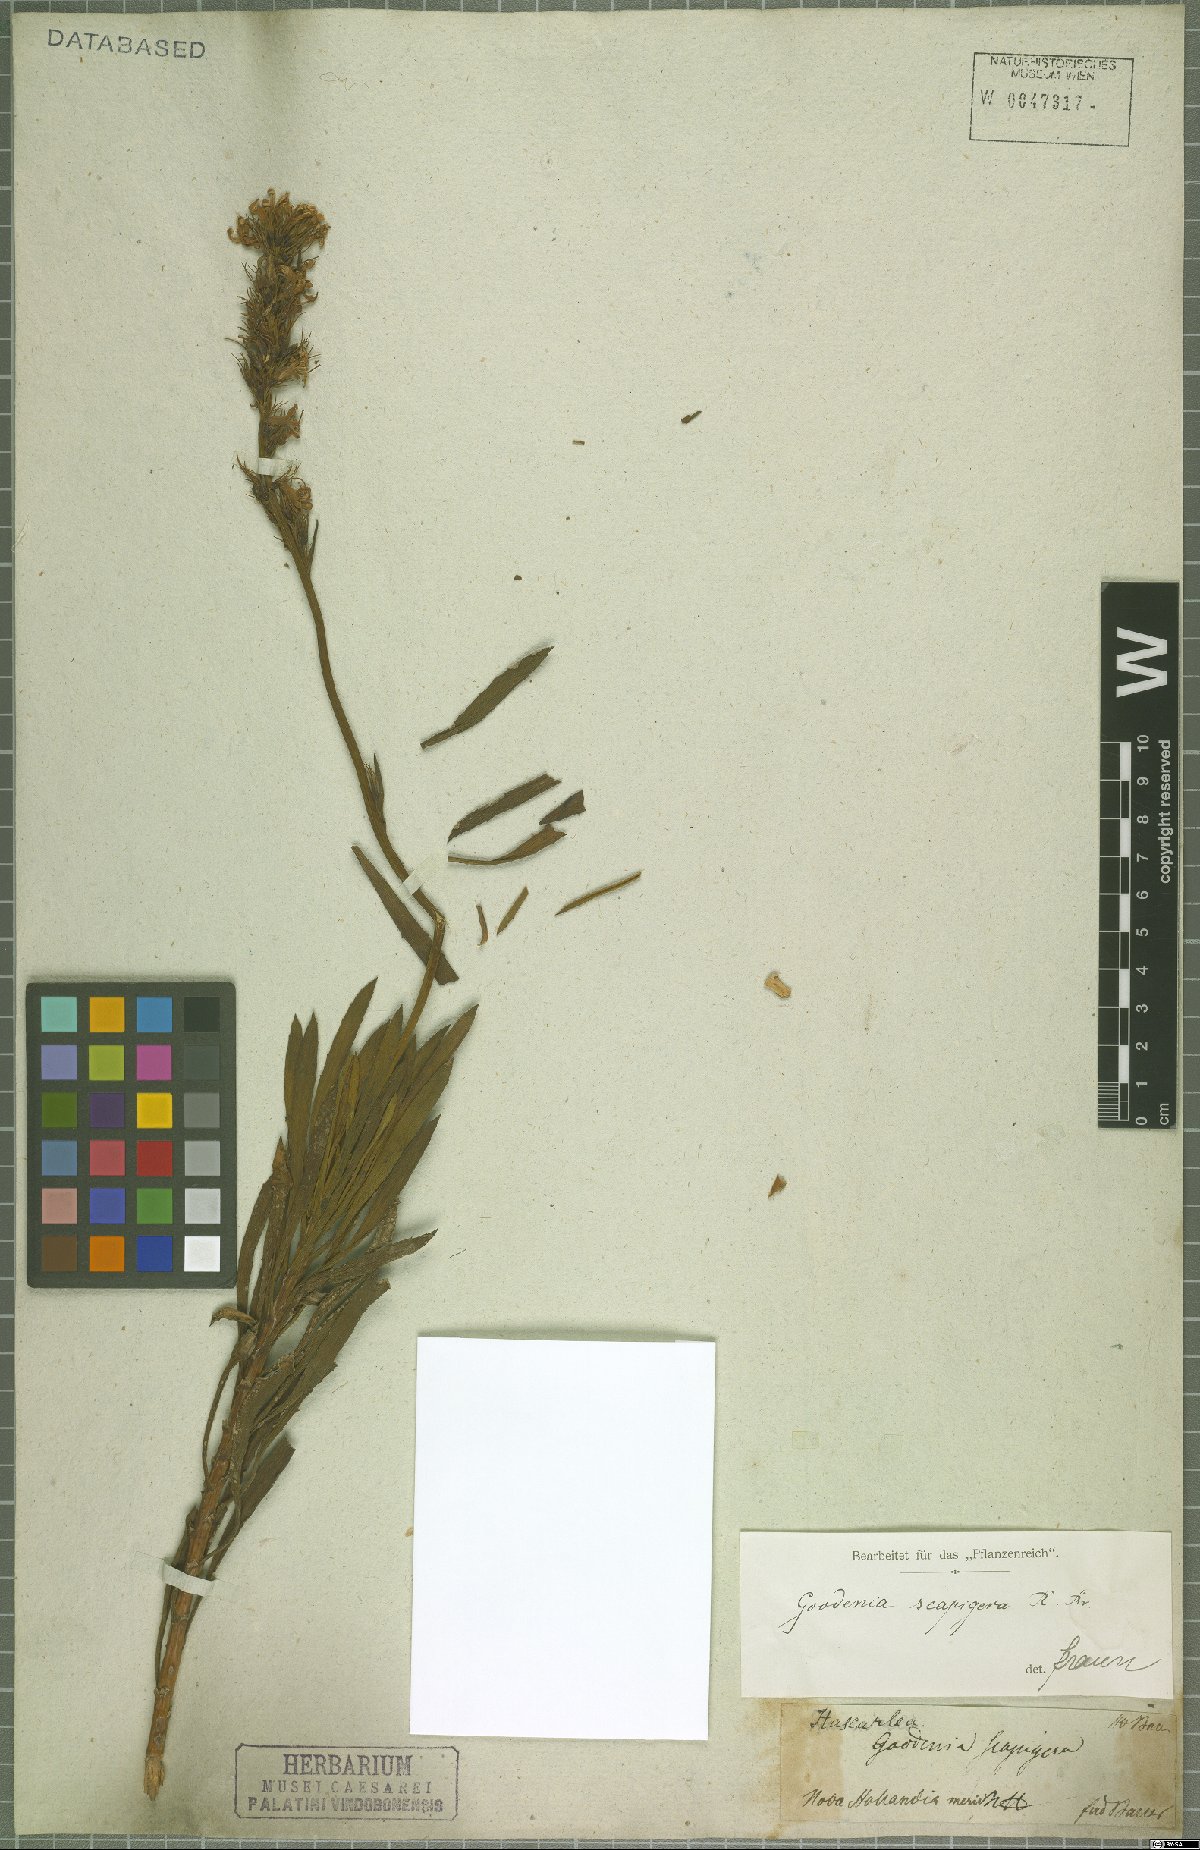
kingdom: Plantae
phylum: Tracheophyta
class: Magnoliopsida
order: Asterales
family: Goodeniaceae
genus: Goodenia
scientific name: Goodenia scapigera
